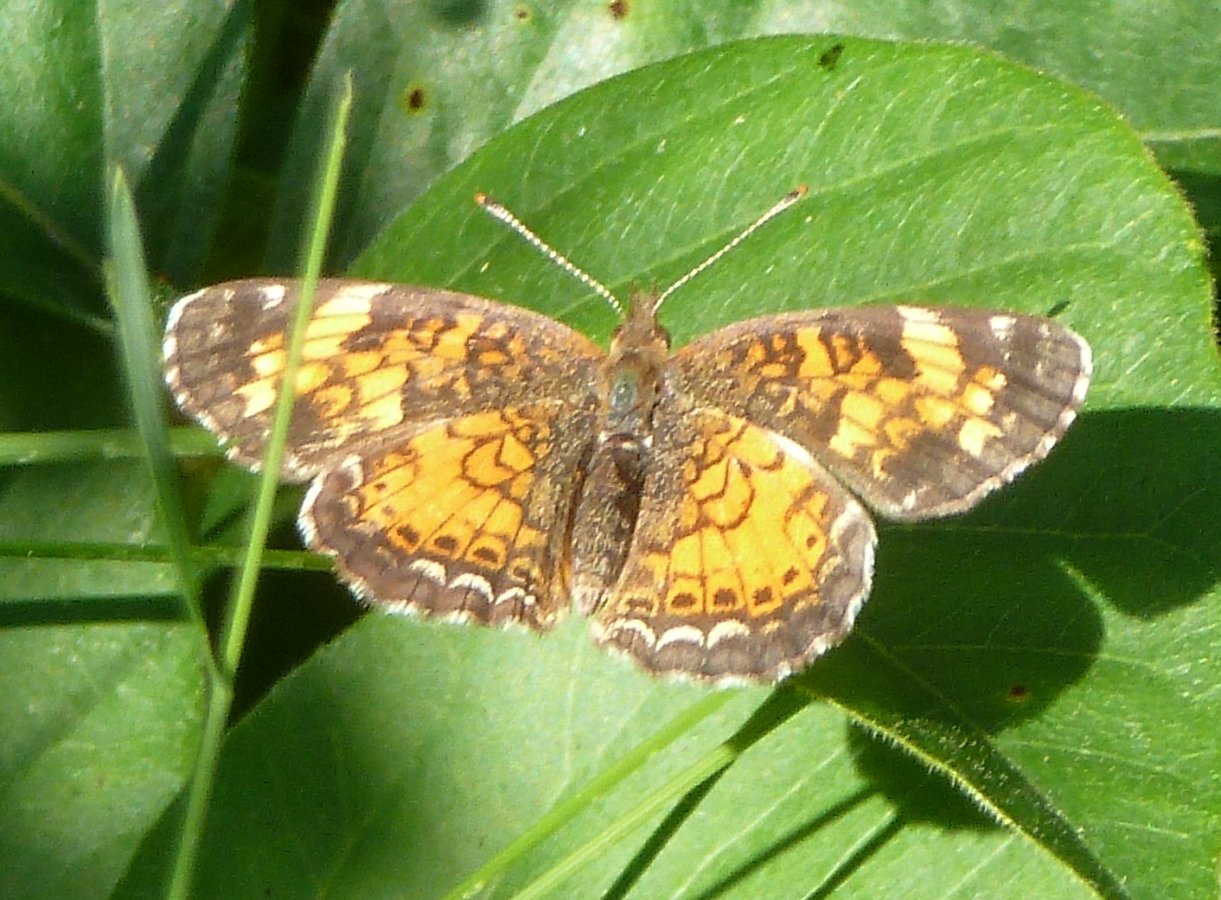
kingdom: Animalia
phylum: Arthropoda
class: Insecta
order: Lepidoptera
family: Nymphalidae
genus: Phyciodes
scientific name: Phyciodes tharos
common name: Northern Crescent
